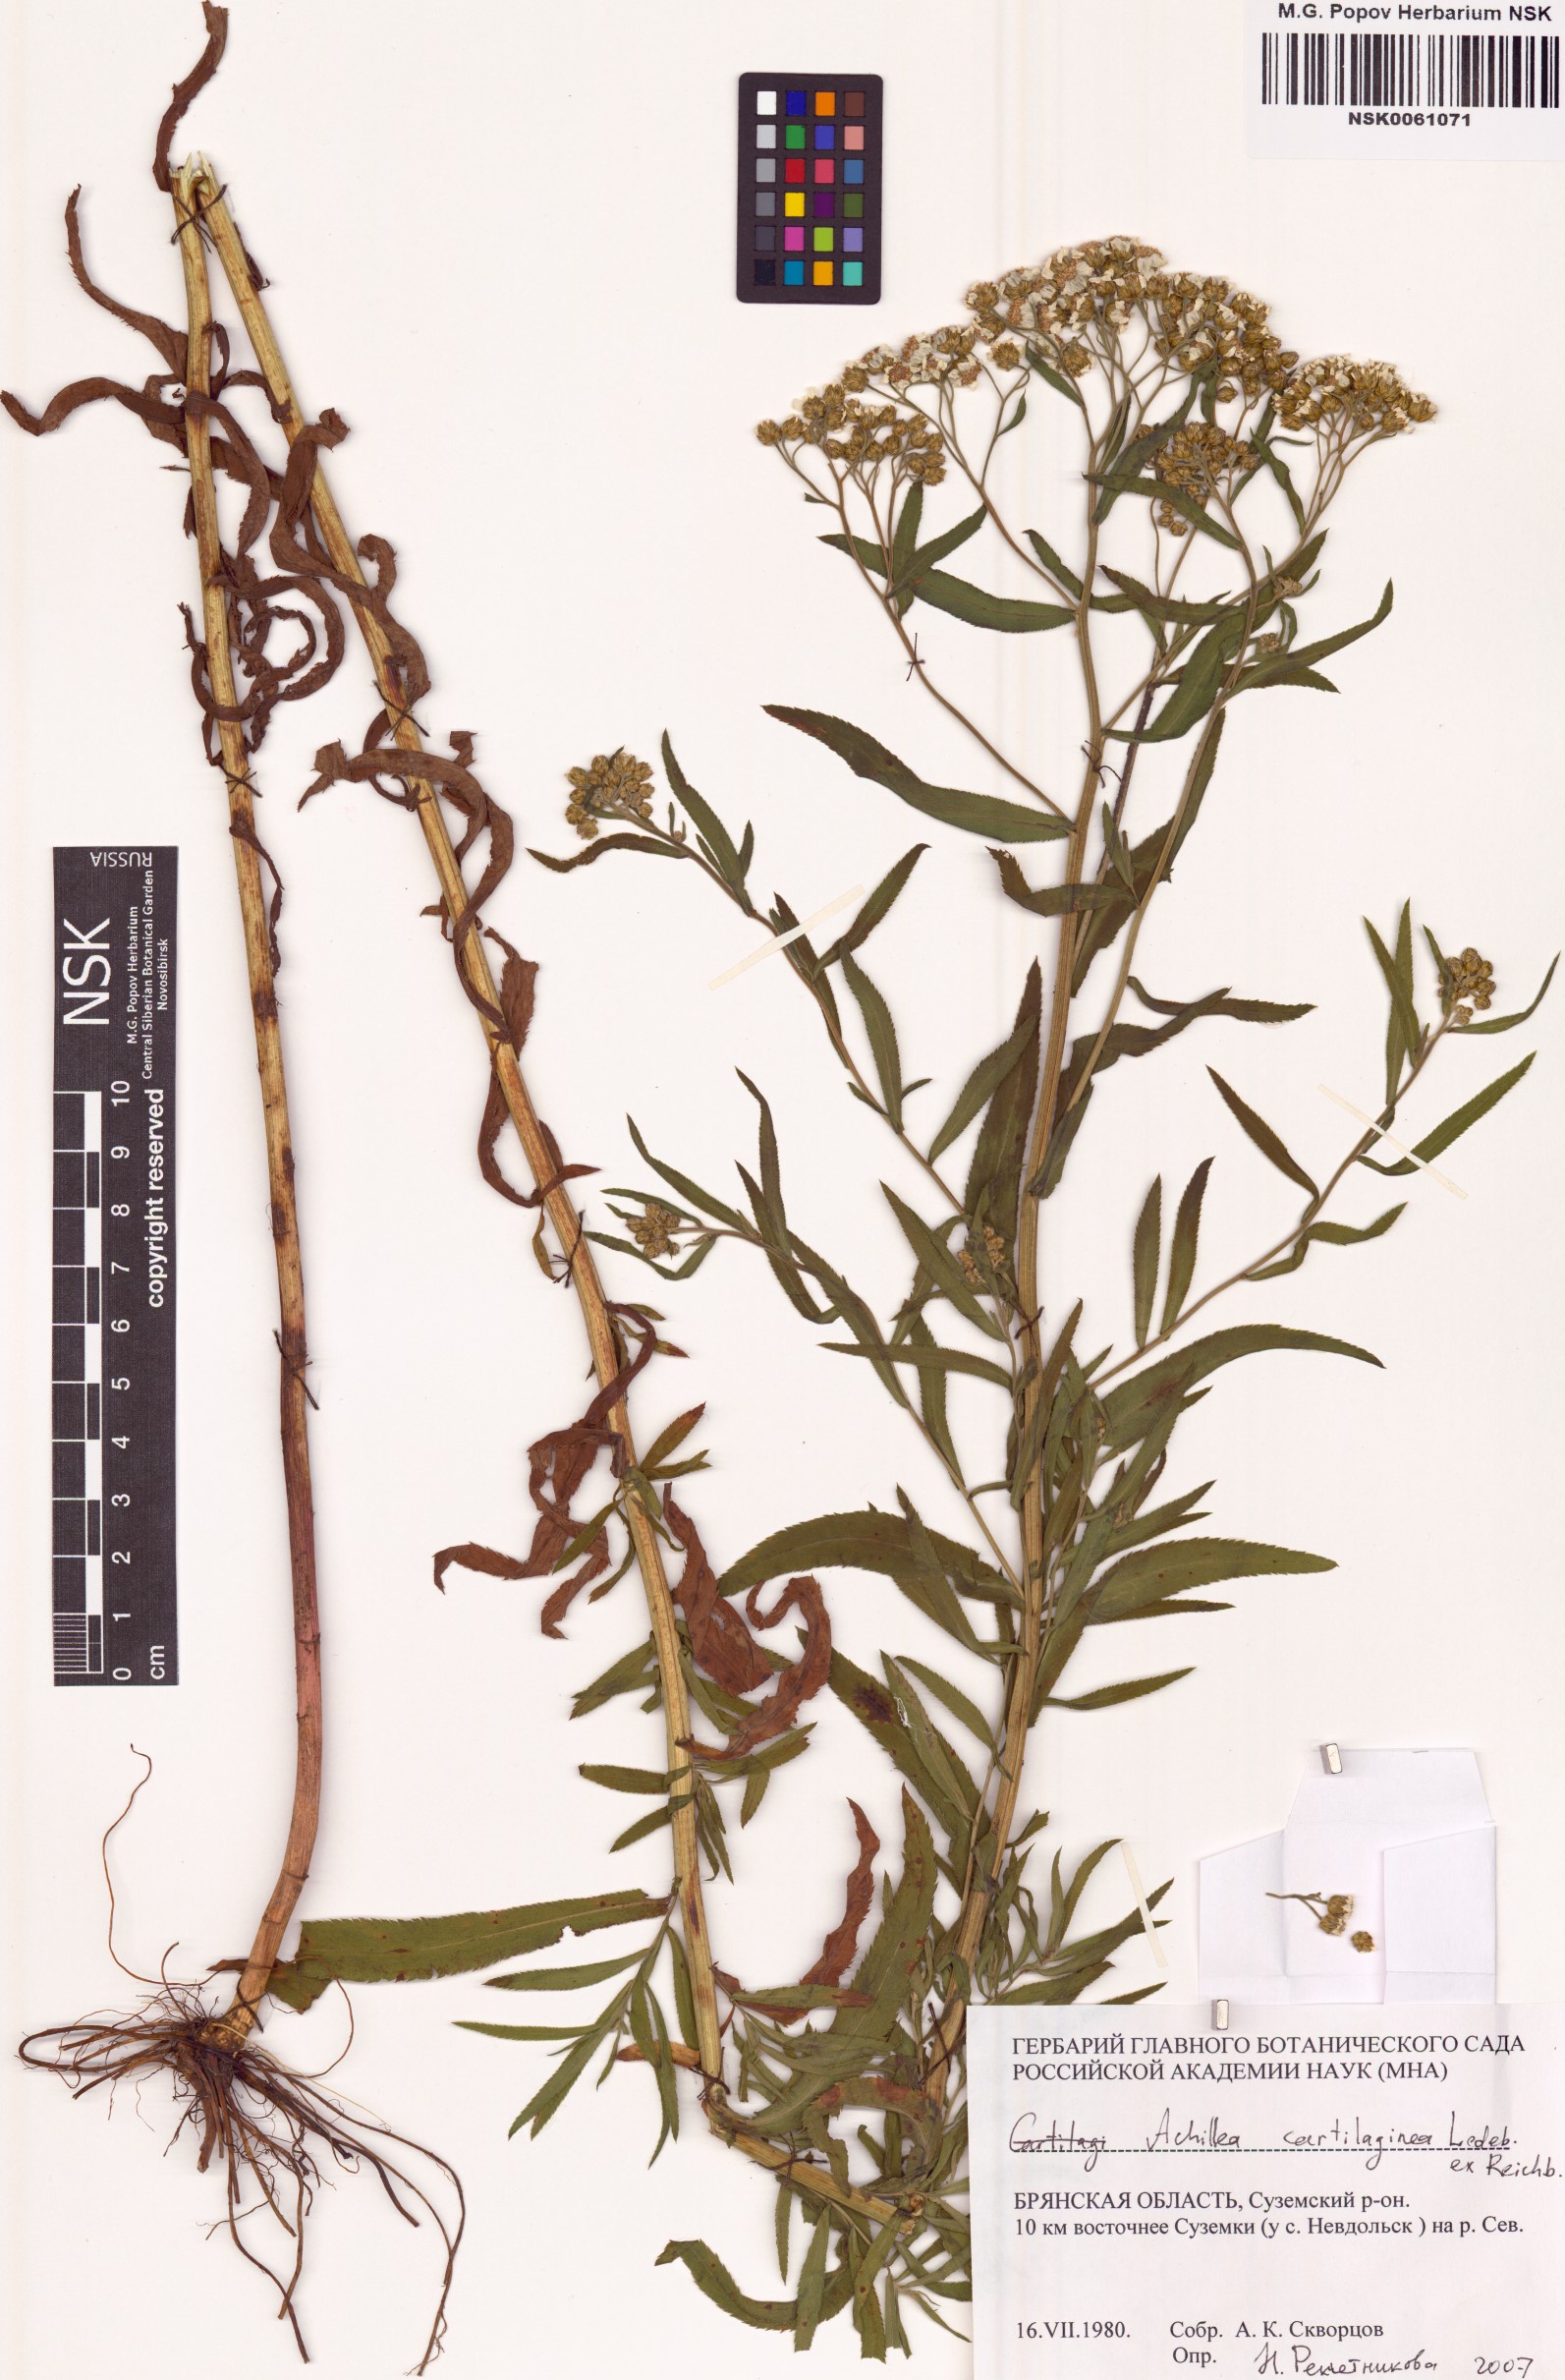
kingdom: Plantae
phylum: Tracheophyta
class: Magnoliopsida
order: Asterales
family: Asteraceae
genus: Achillea
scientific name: Achillea salicifolia
